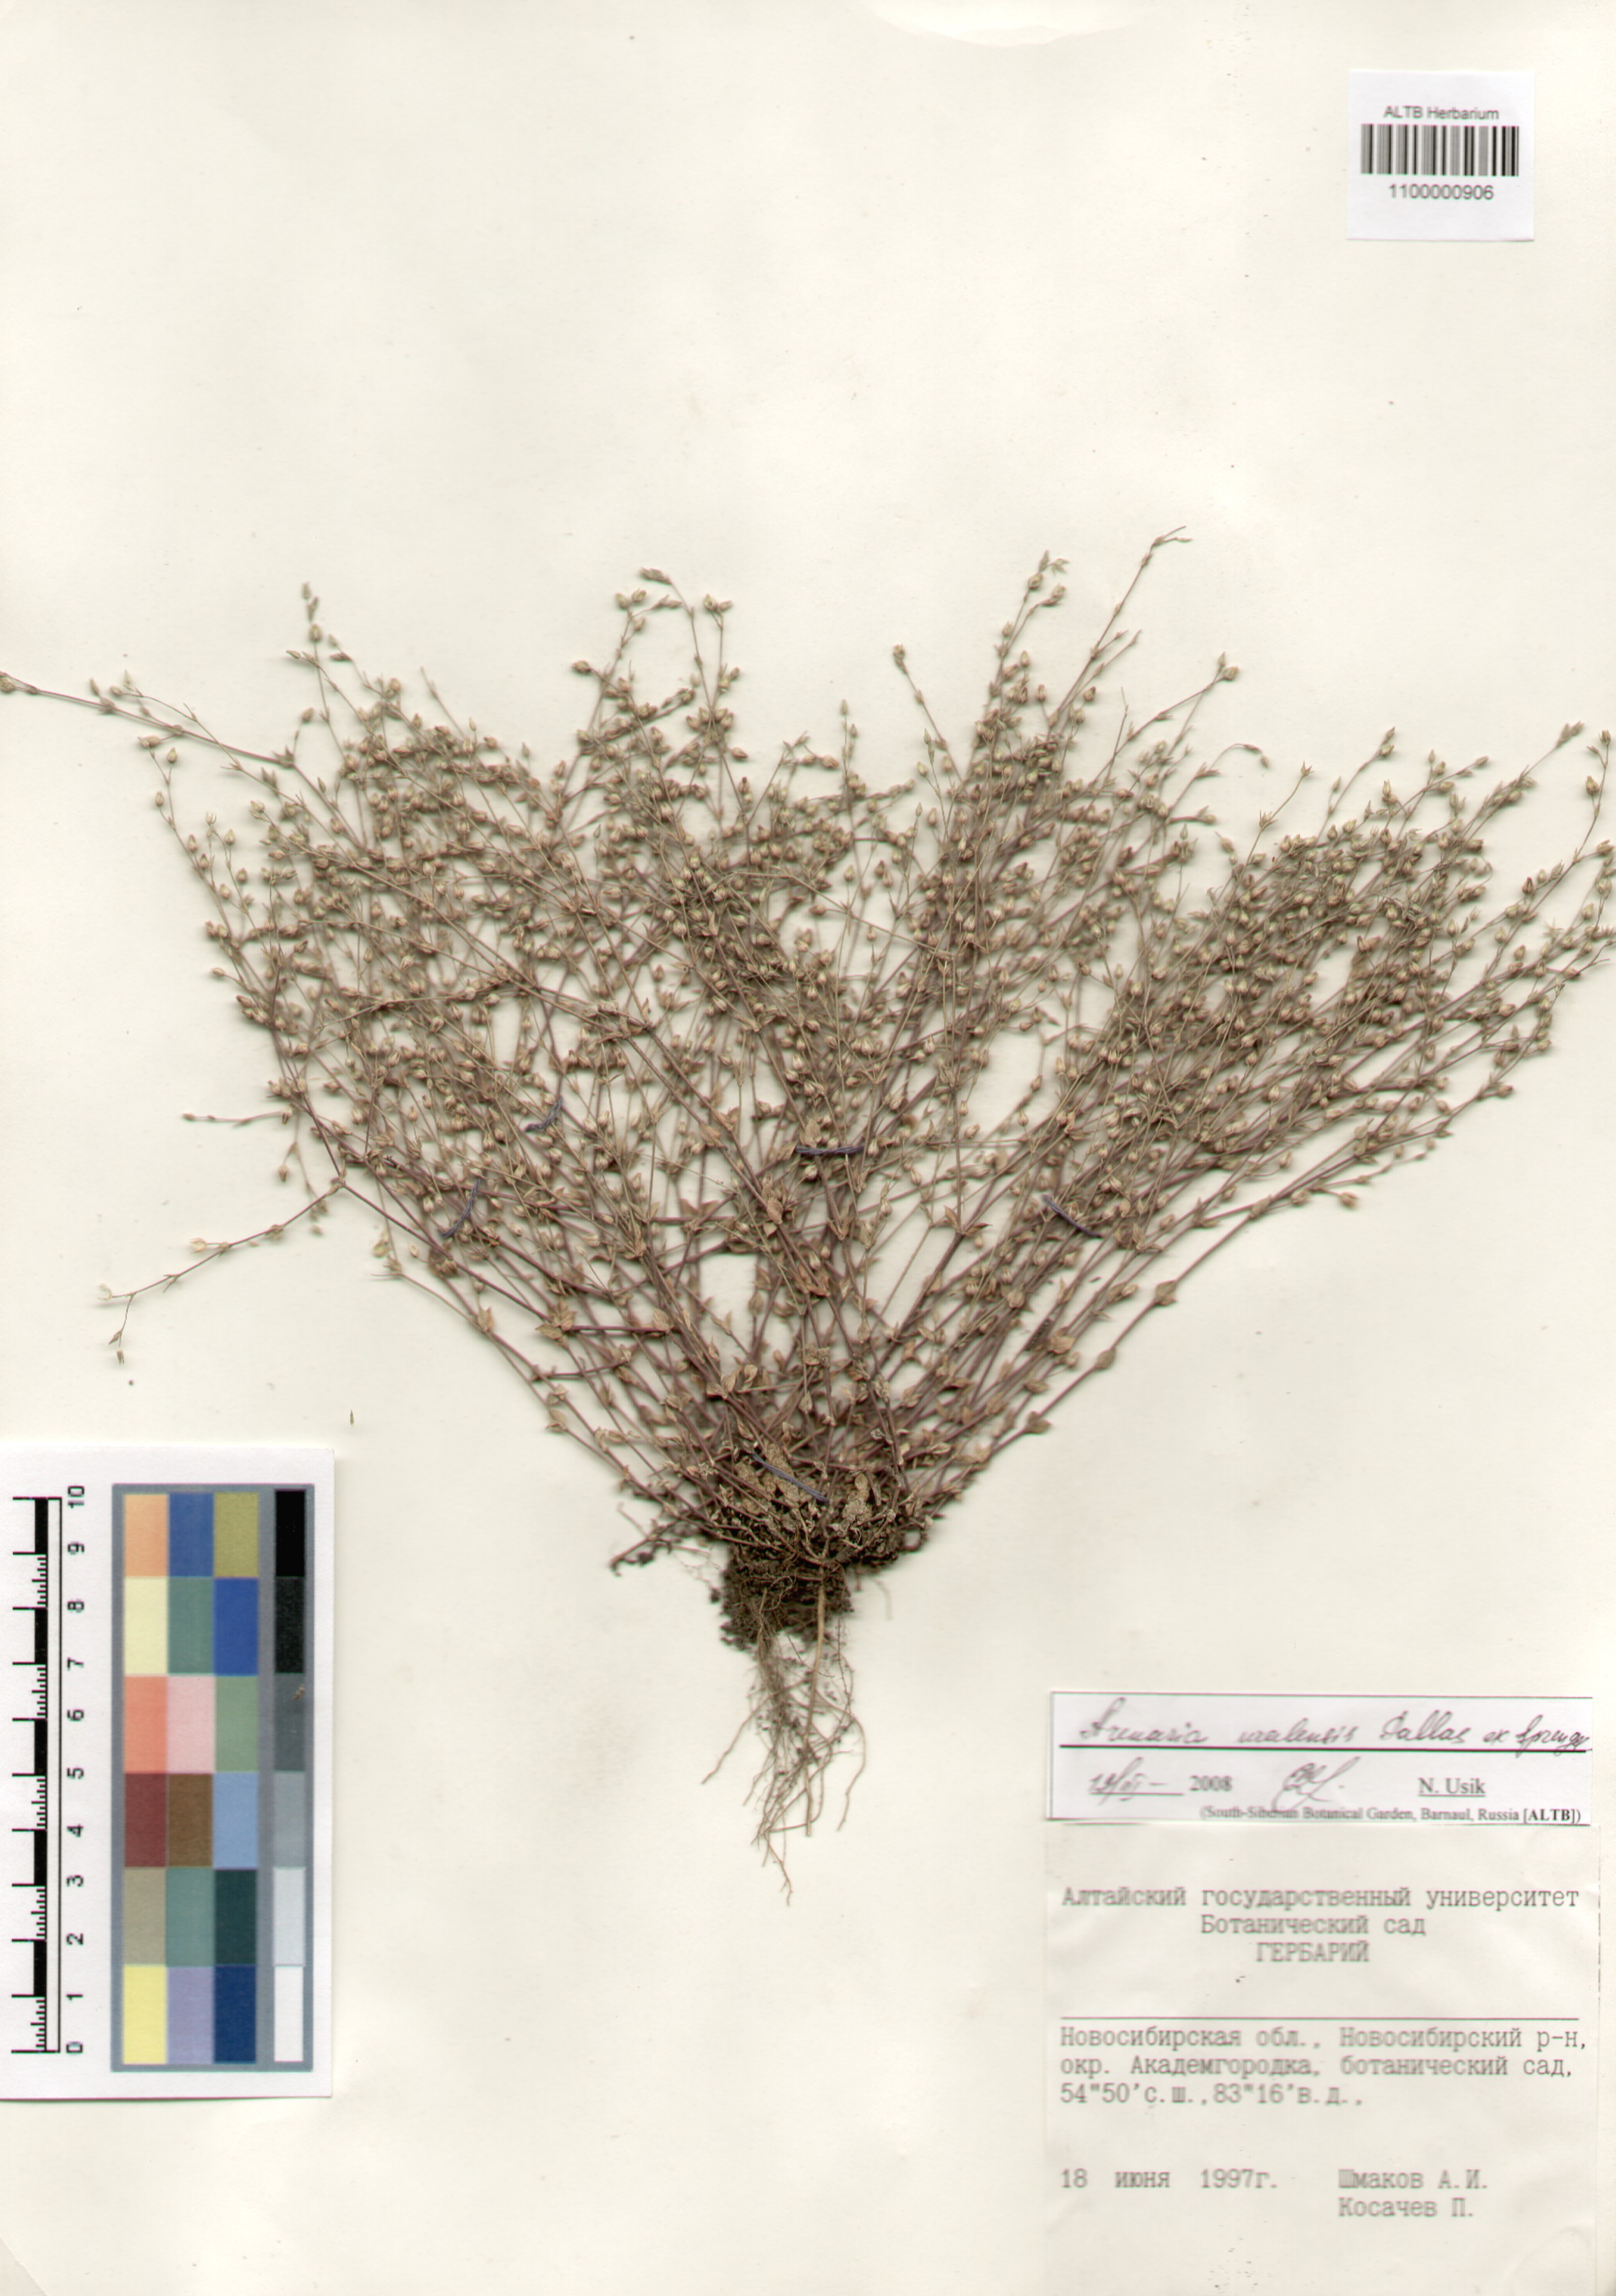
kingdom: Plantae
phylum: Tracheophyta
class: Magnoliopsida
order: Caryophyllales
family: Caryophyllaceae
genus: Arenaria
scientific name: Arenaria serpyllifolia
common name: Thyme-leaved sandwort
